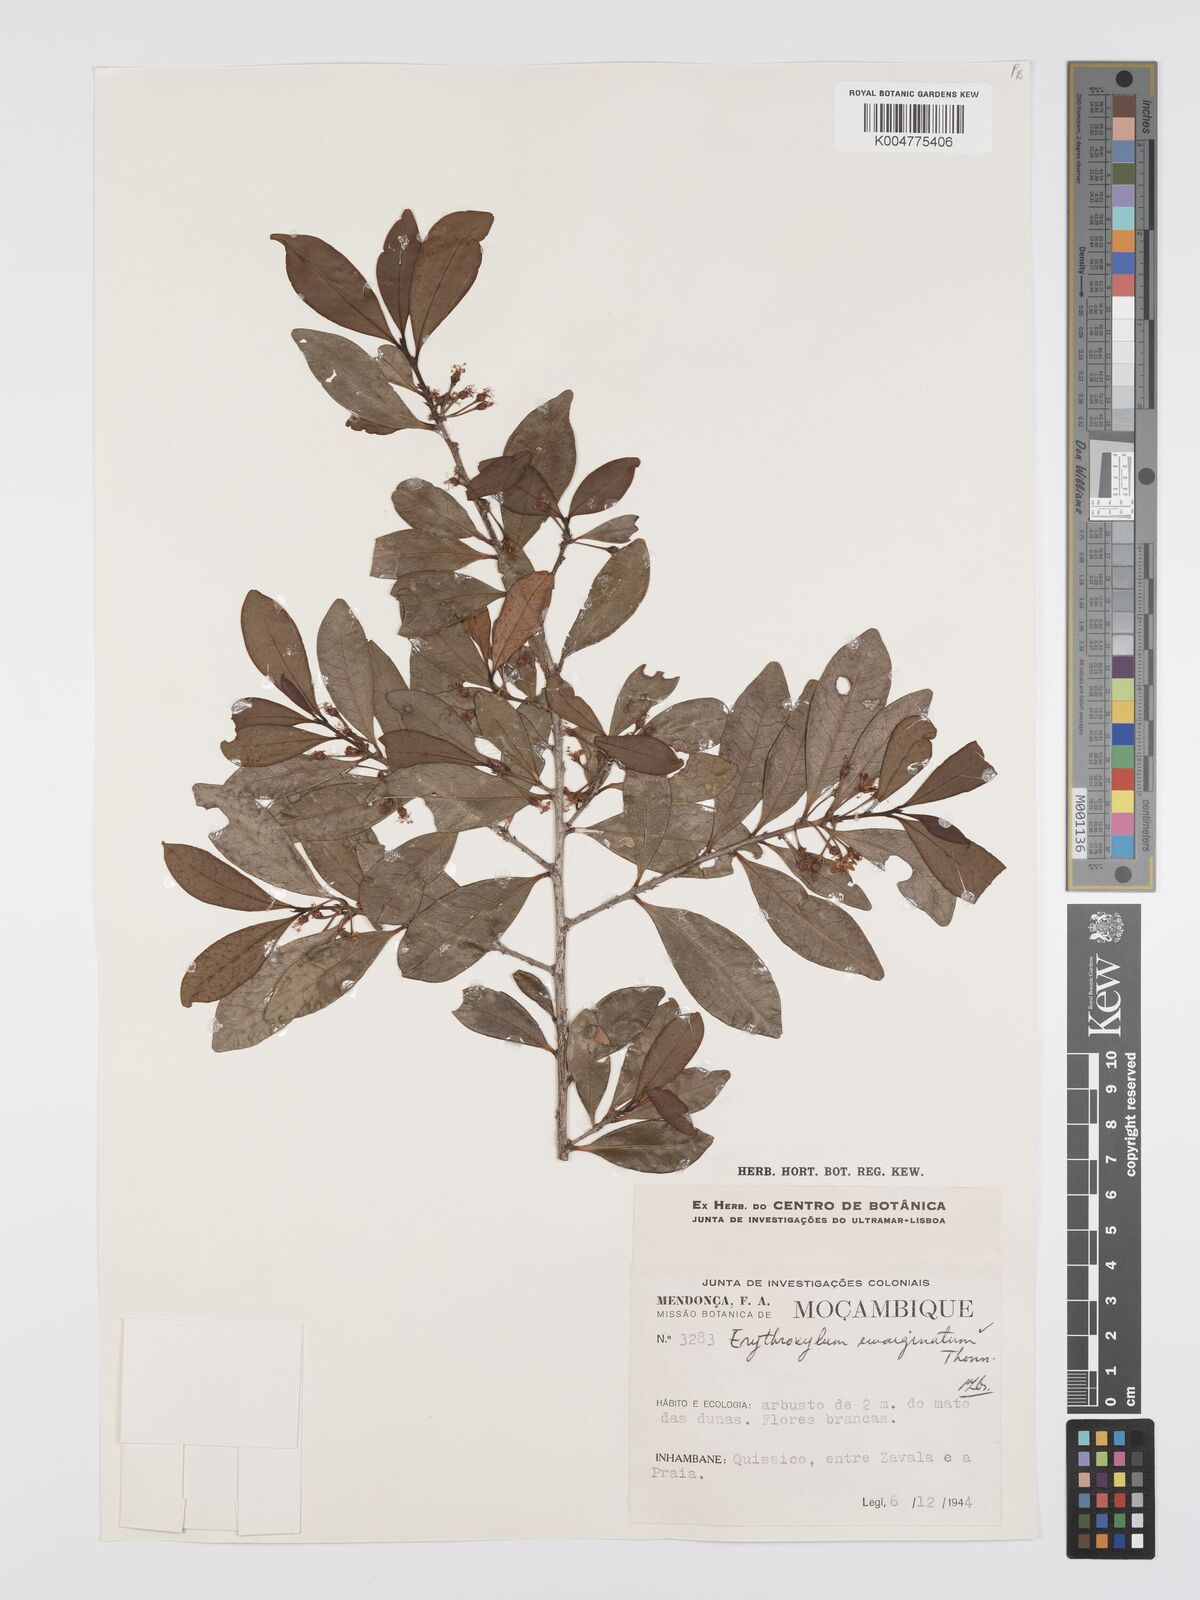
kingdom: Plantae
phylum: Tracheophyta
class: Magnoliopsida
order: Malpighiales
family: Erythroxylaceae
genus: Erythroxylum
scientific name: Erythroxylum emarginatum
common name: African coca-tree
